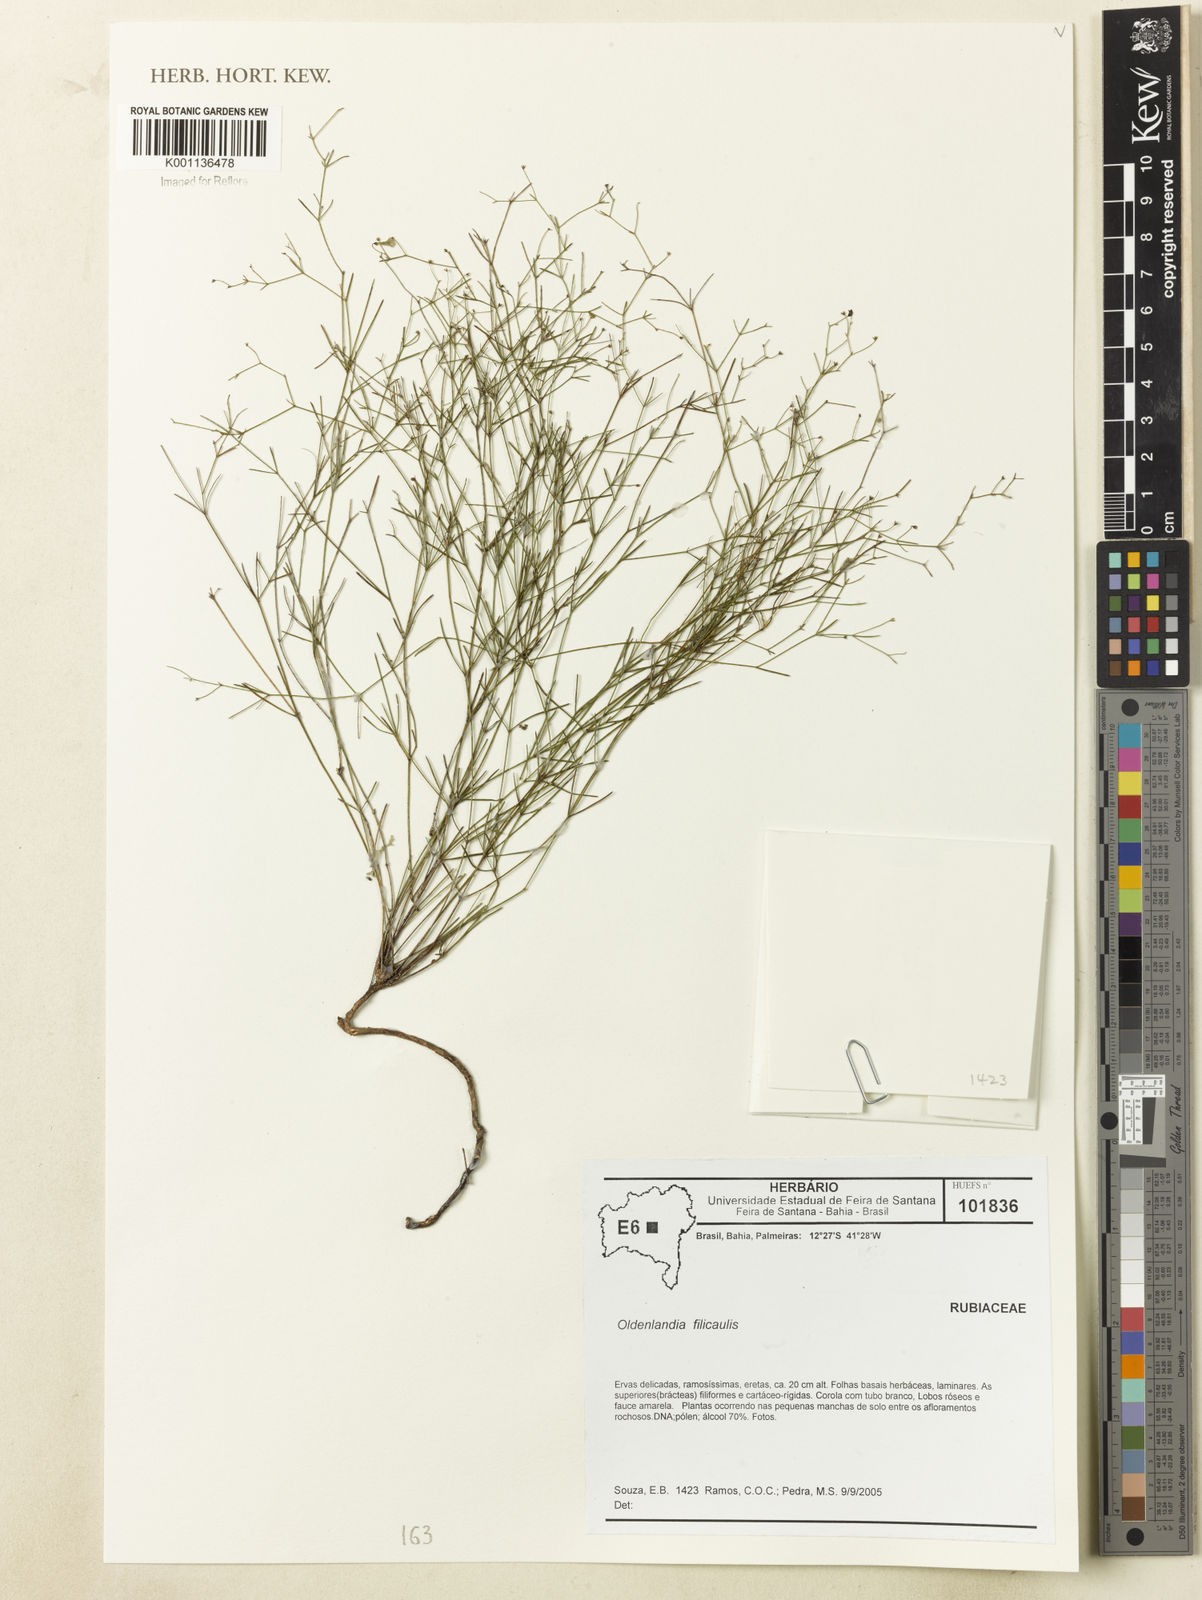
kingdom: Plantae
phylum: Tracheophyta
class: Magnoliopsida
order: Gentianales
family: Rubiaceae
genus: Oldenlandia
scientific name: Oldenlandia filicaulis
